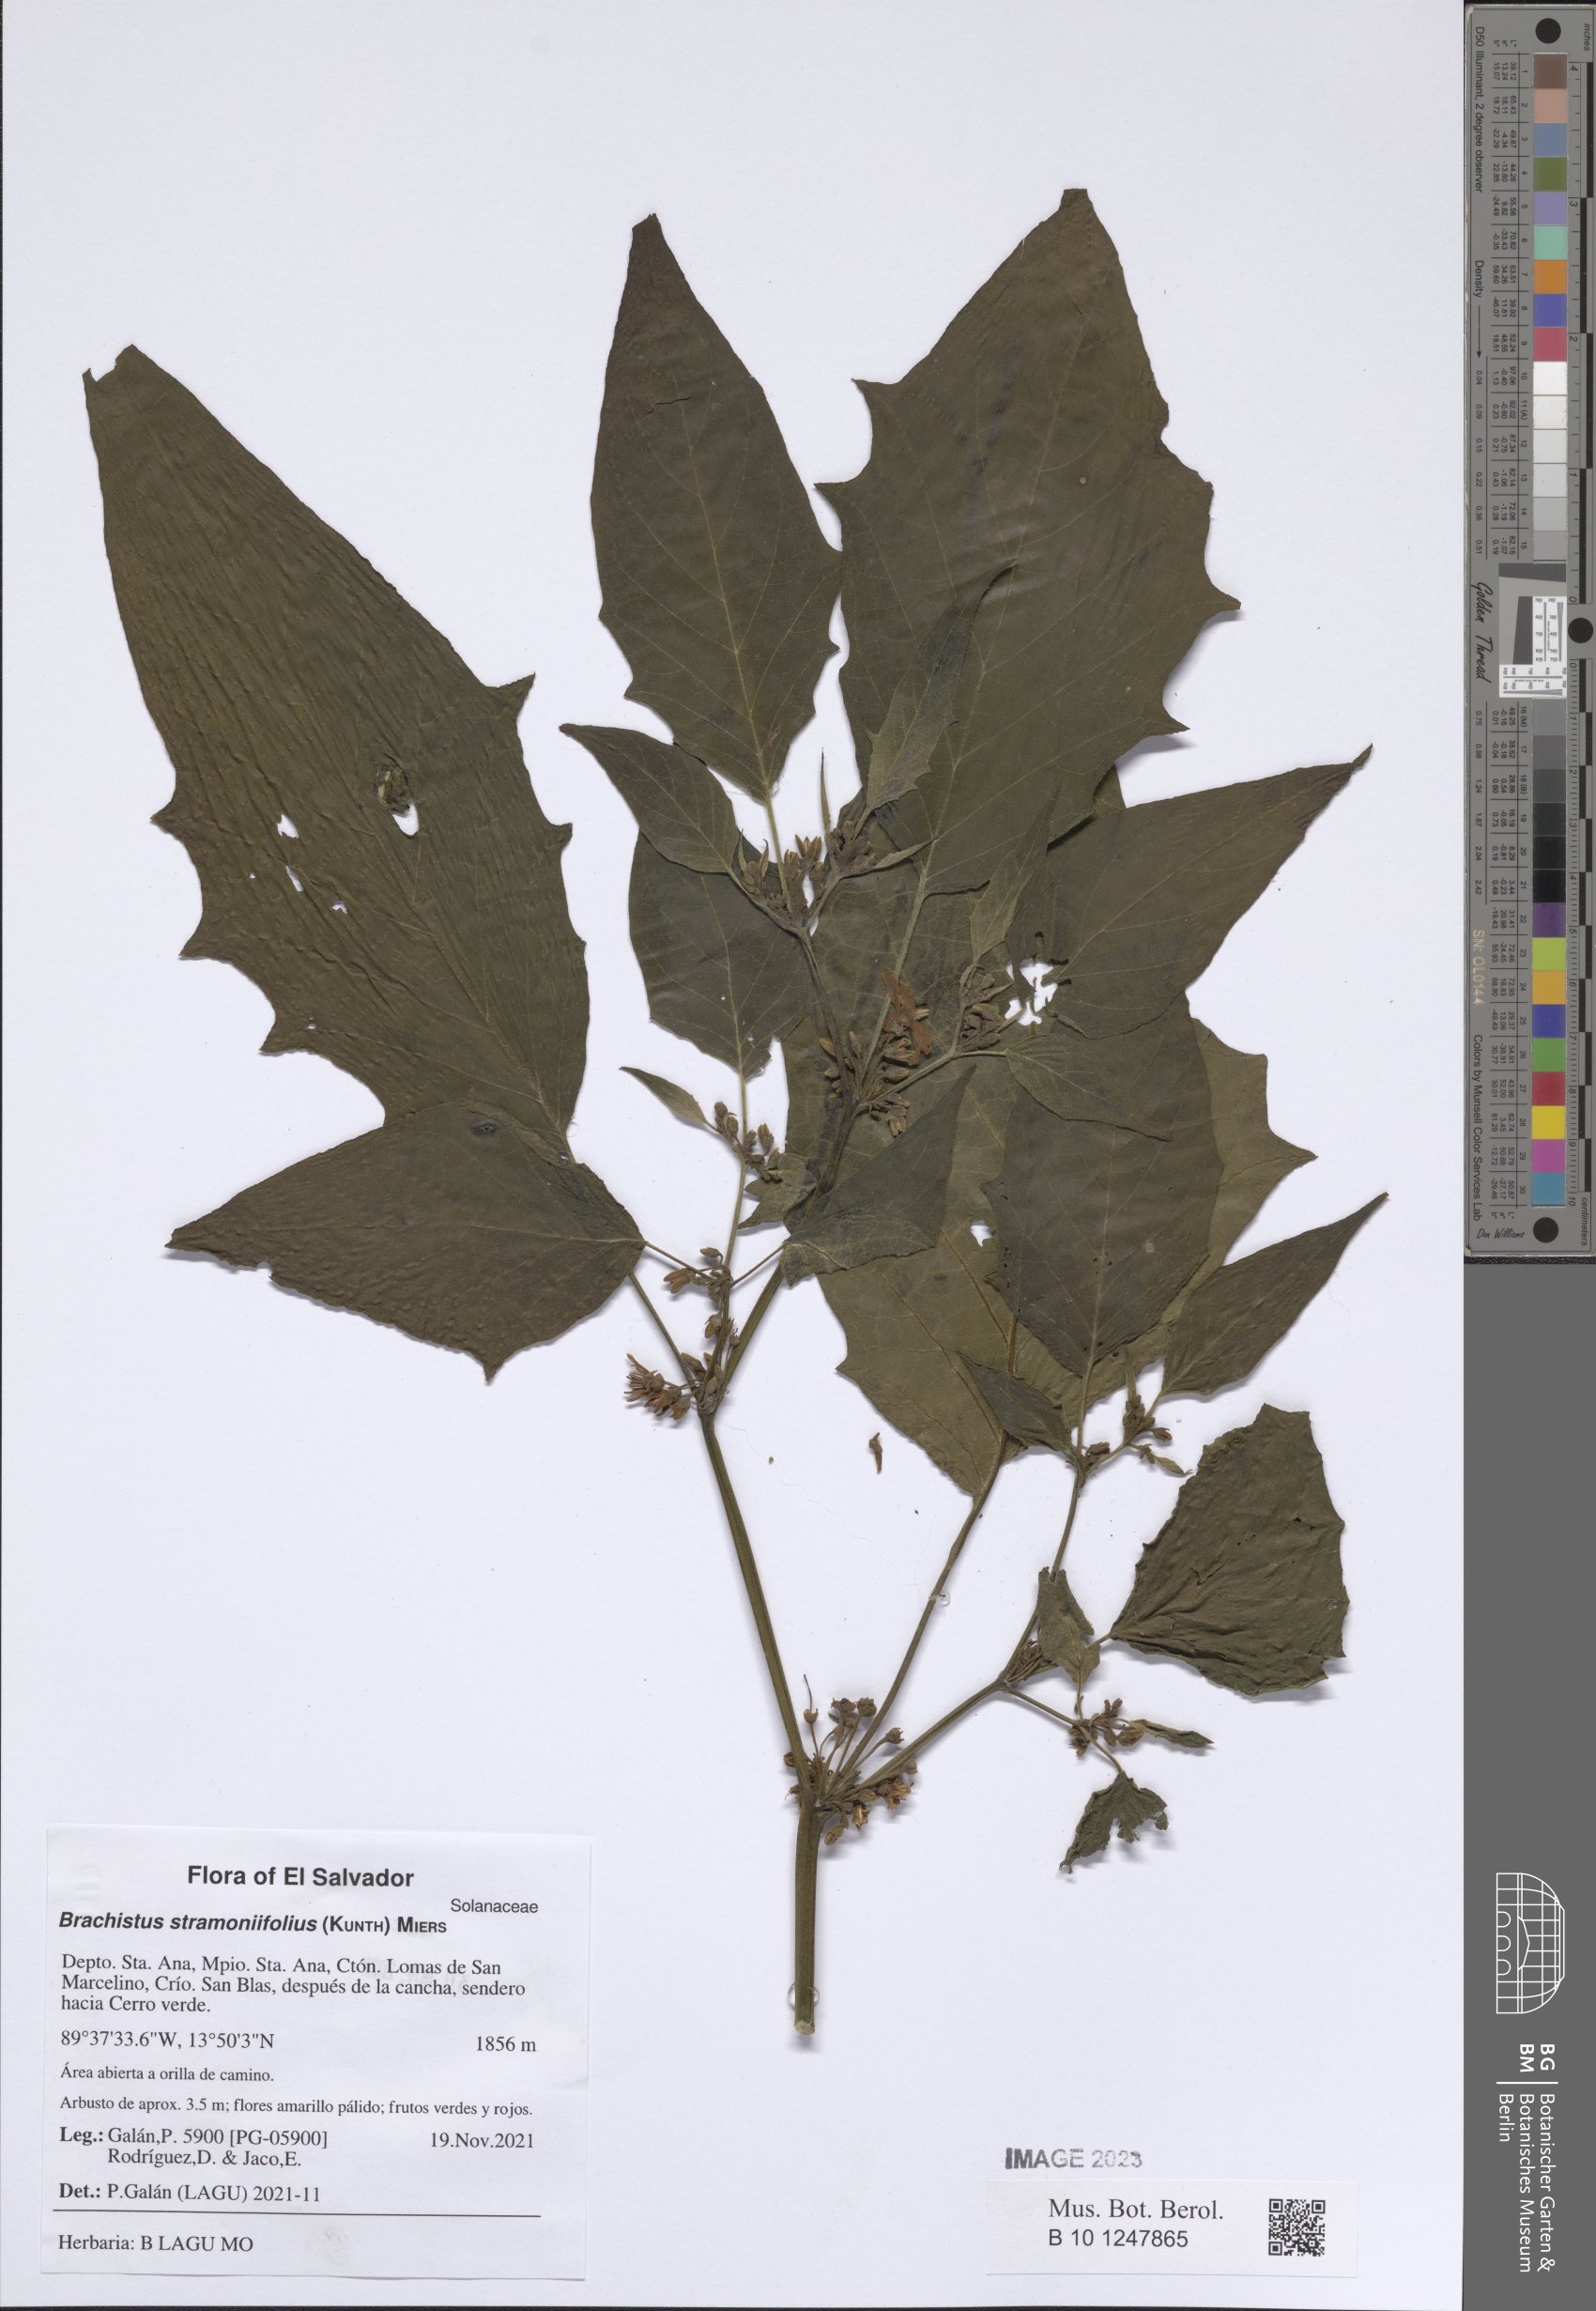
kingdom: Plantae
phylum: Tracheophyta
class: Magnoliopsida
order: Solanales
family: Solanaceae
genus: Brachistus
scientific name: Brachistus stramonifolius
